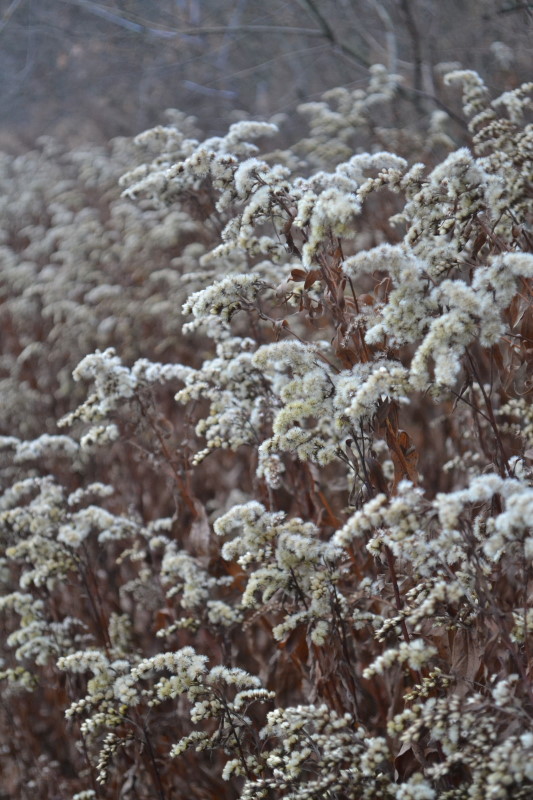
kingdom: Plantae
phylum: Tracheophyta
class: Magnoliopsida
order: Asterales
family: Asteraceae
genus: Solidago
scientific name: Solidago gigantea
